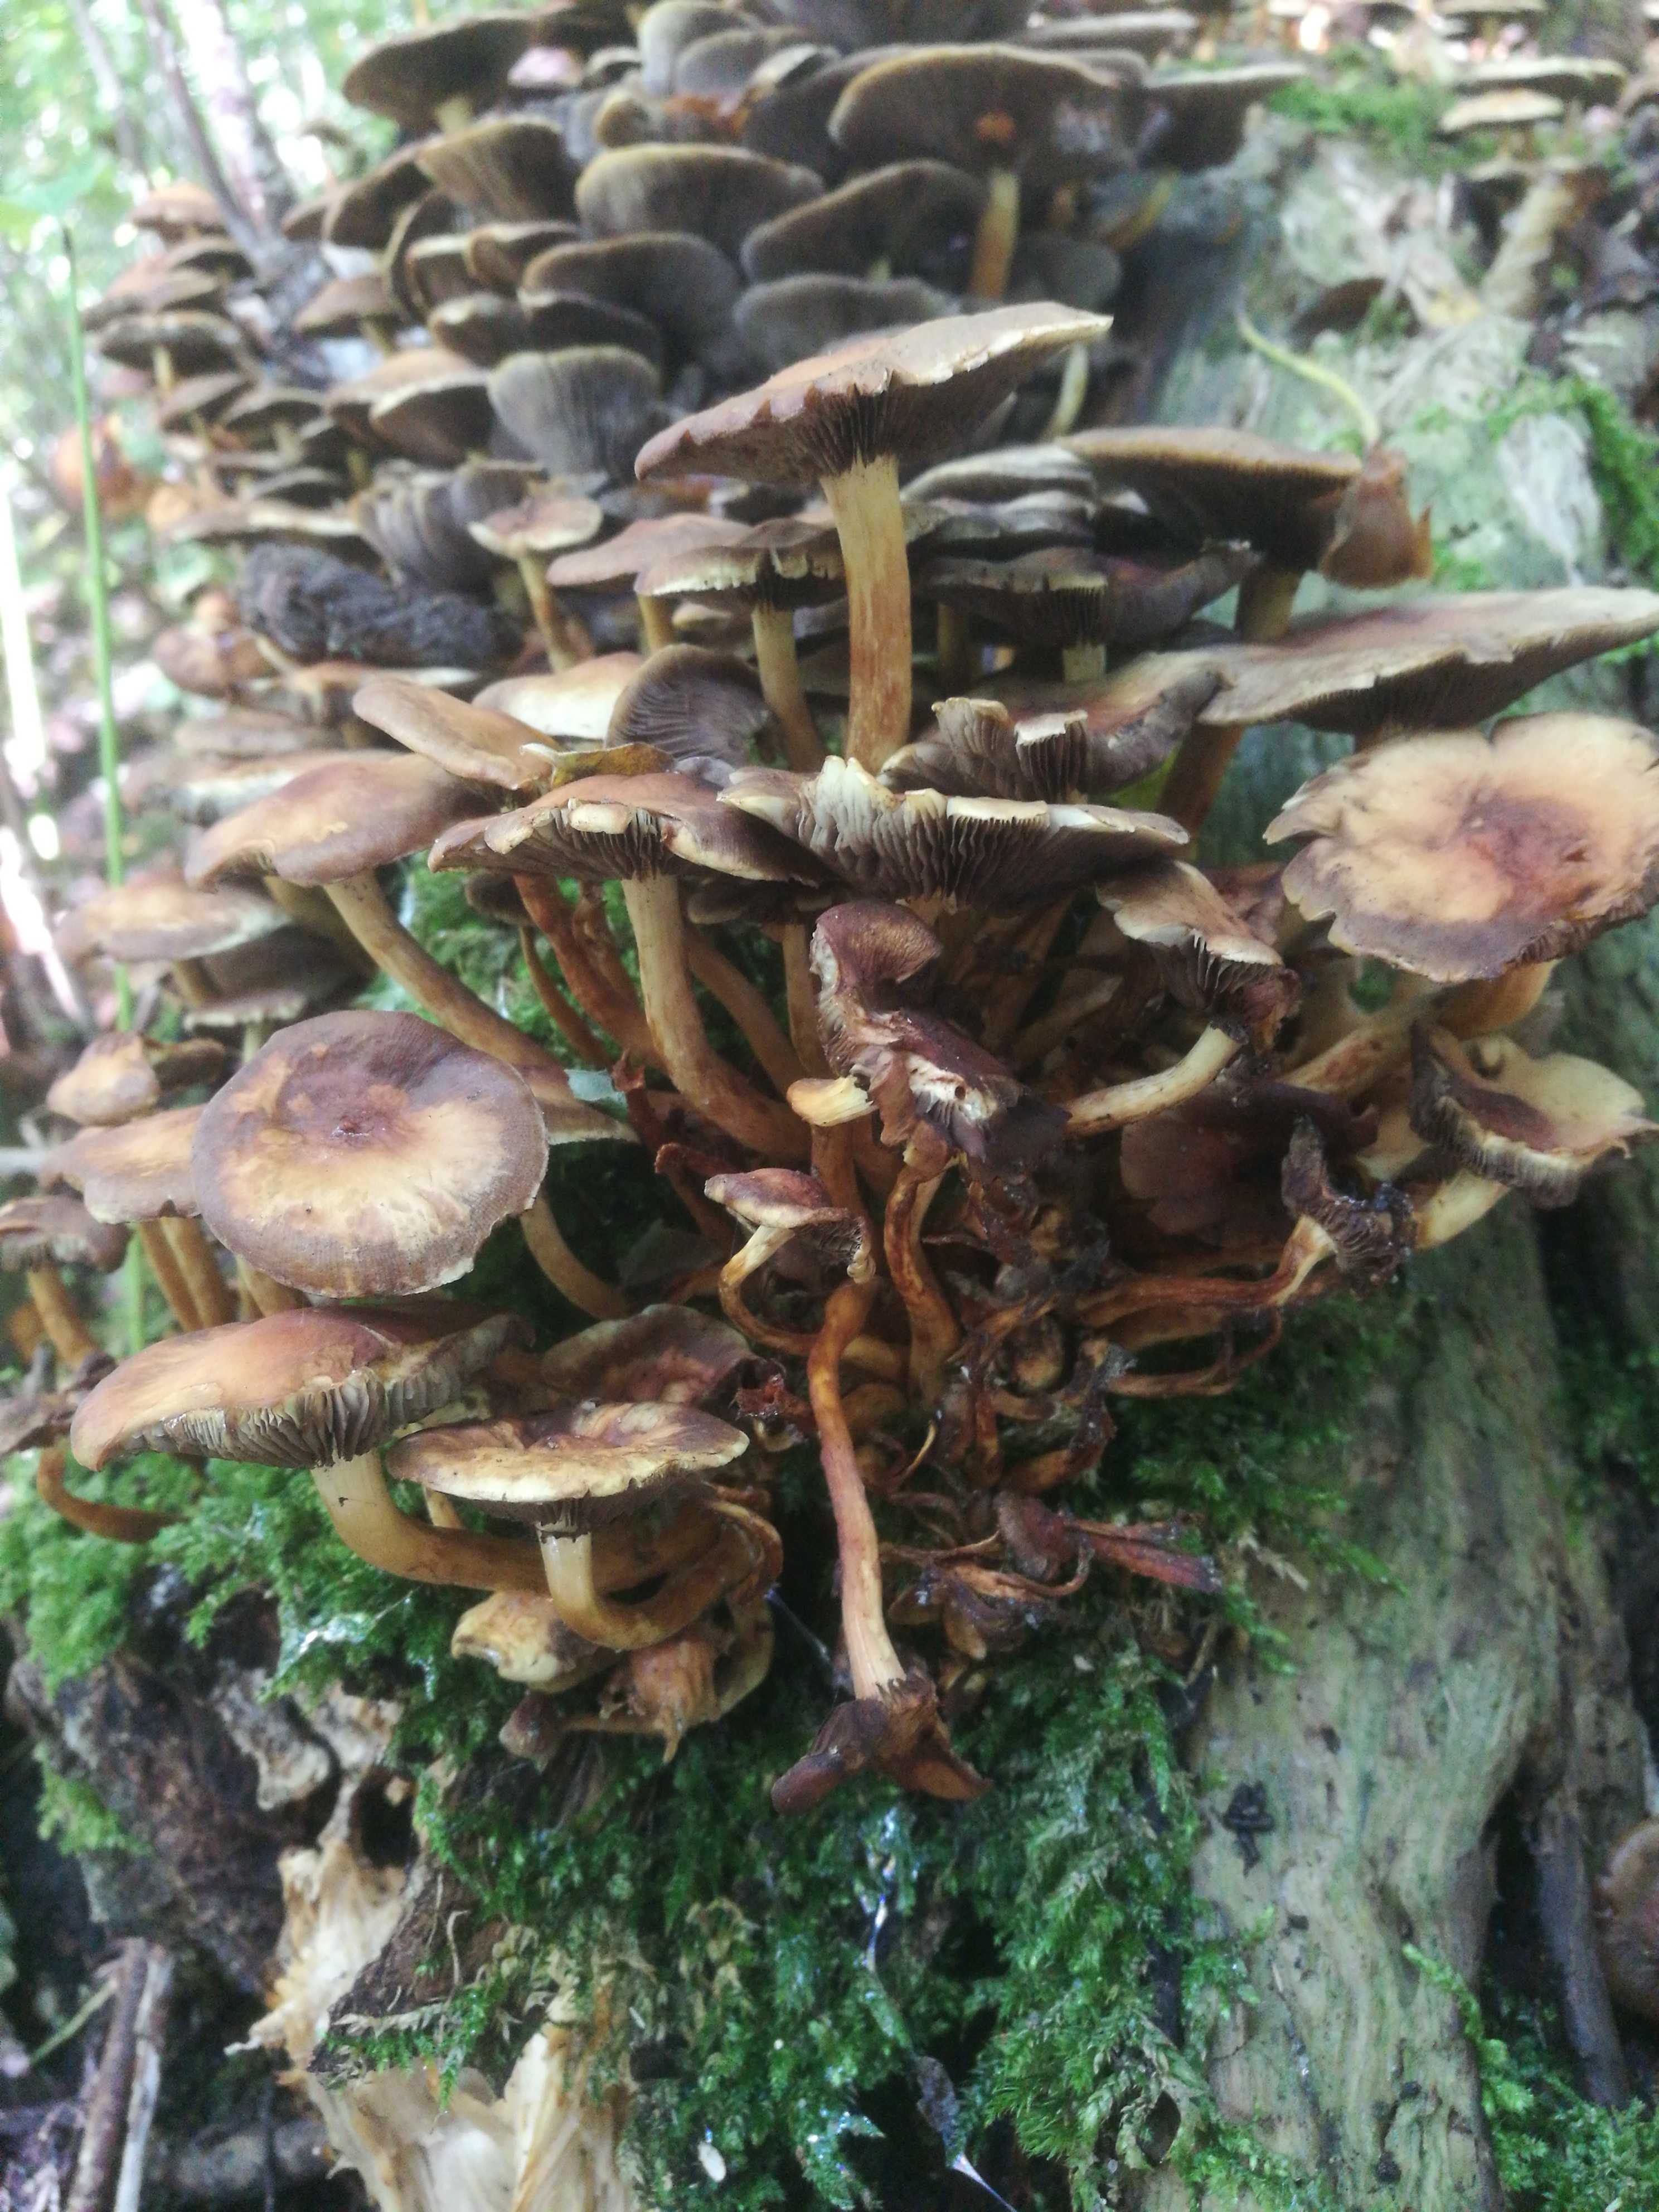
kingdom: Fungi
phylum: Basidiomycota
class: Agaricomycetes
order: Agaricales
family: Strophariaceae
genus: Hypholoma
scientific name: Hypholoma
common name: svovlhat
